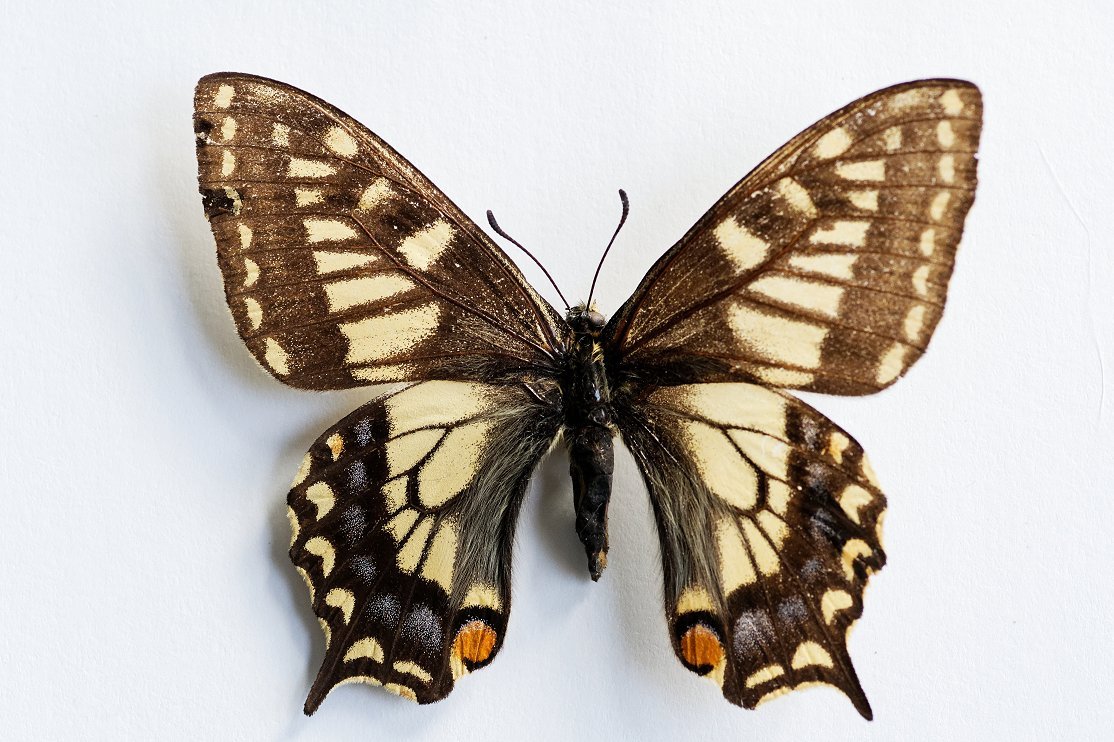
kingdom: Animalia
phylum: Arthropoda
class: Insecta
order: Lepidoptera
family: Papilionidae
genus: Papilio
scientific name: Papilio machaon
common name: Old World Swallowtail
